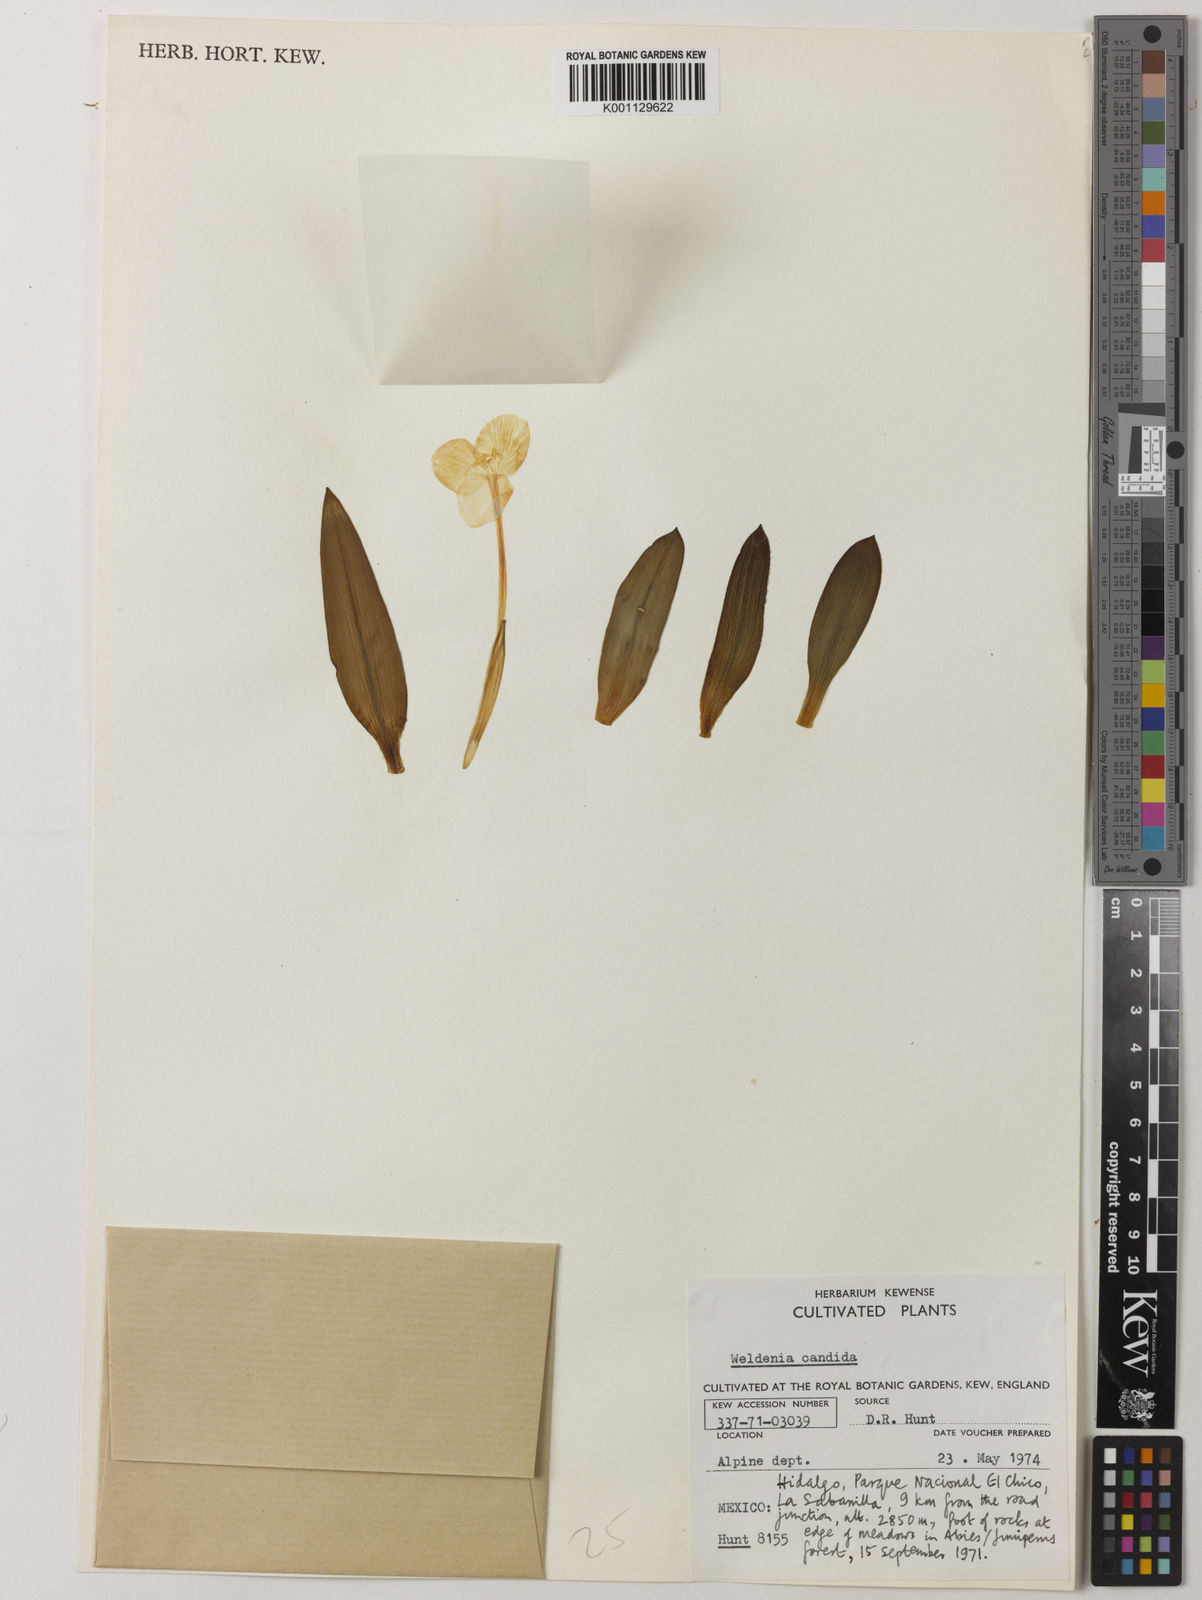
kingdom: Plantae
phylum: Tracheophyta
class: Liliopsida
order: Commelinales
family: Commelinaceae
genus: Weldenia
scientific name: Weldenia candida
